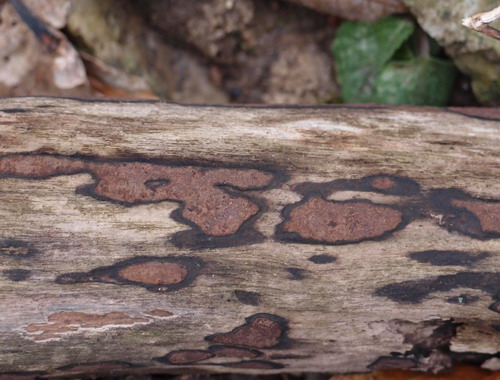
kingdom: Fungi
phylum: Ascomycota
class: Sordariomycetes
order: Xylariales
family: Hypoxylaceae
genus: Hypoxylon
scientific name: Hypoxylon petriniae
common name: nedsænket kulbær
